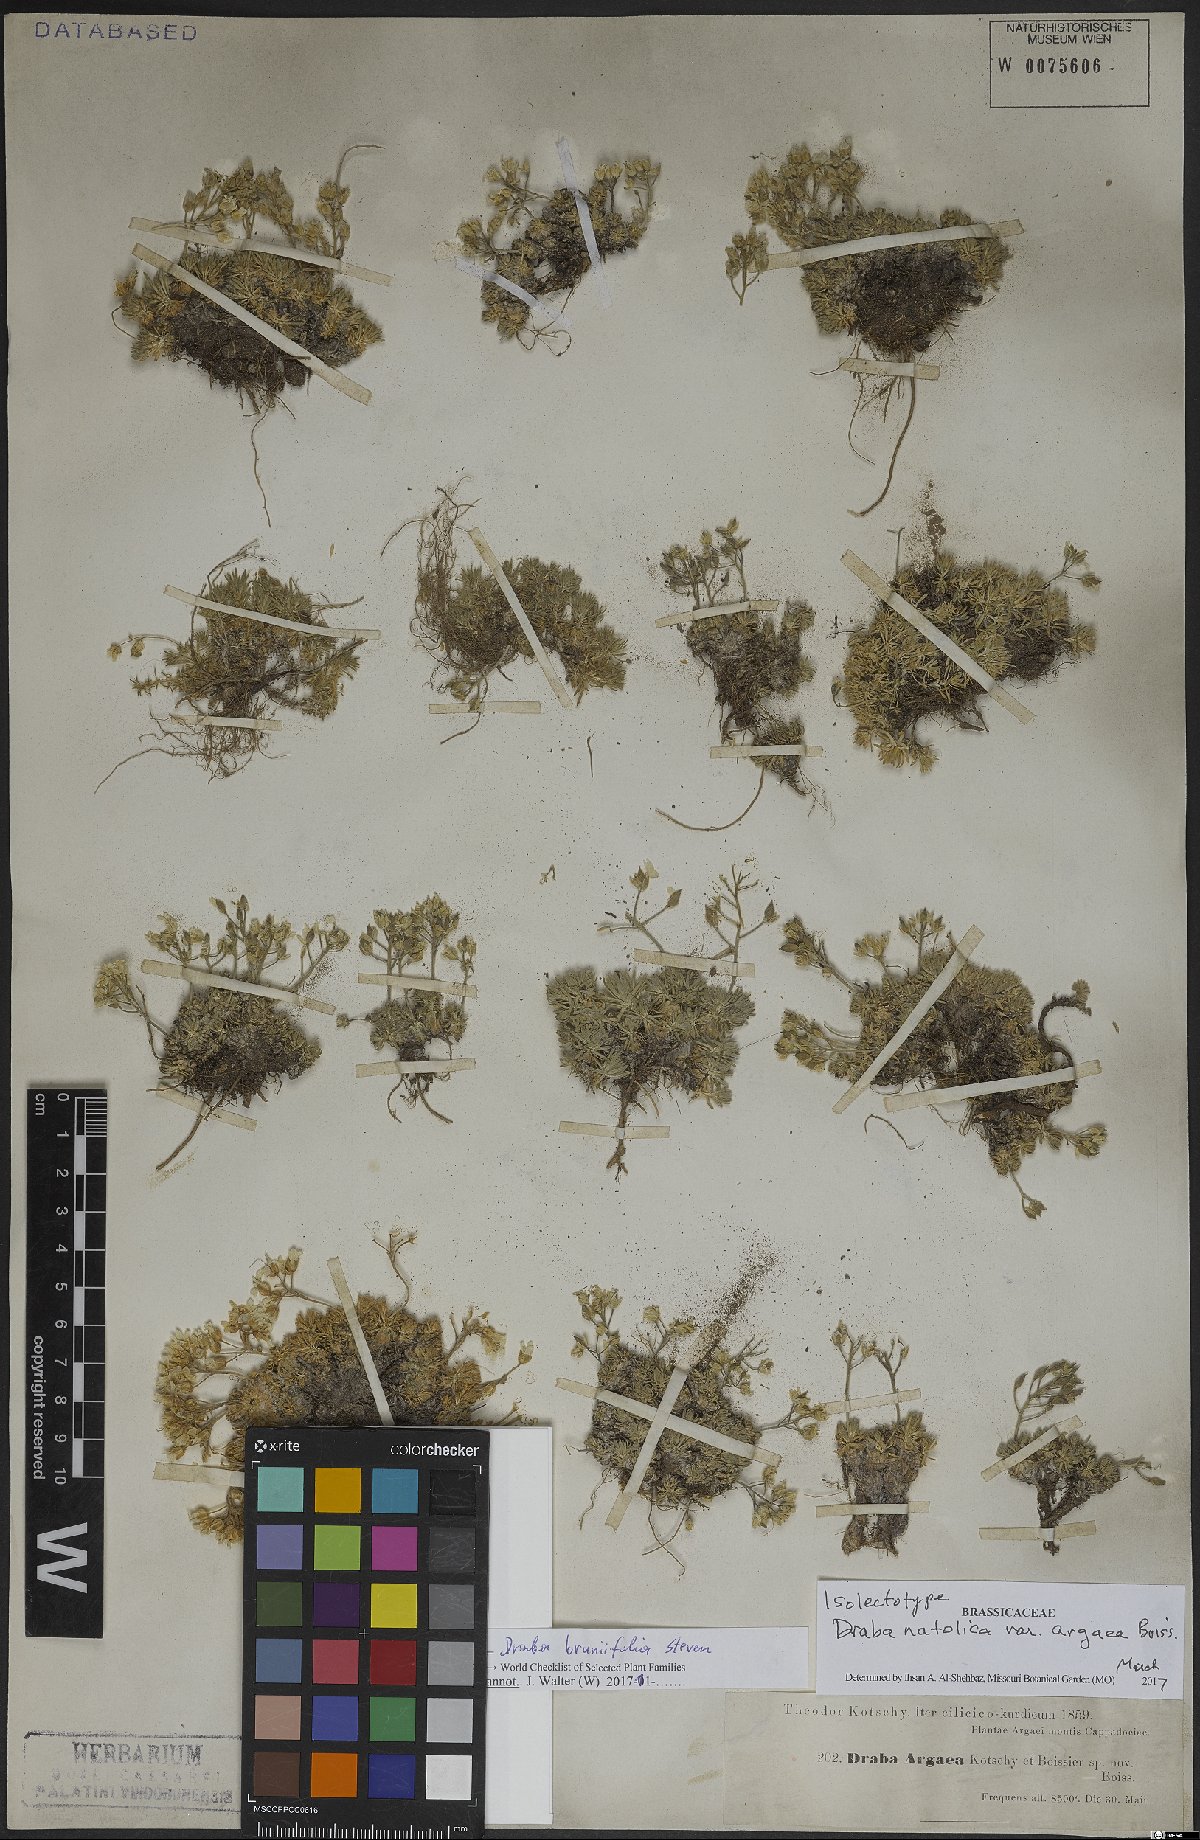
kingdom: Plantae
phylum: Tracheophyta
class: Magnoliopsida
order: Brassicales
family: Brassicaceae
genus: Draba
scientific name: Draba bruniifolia
